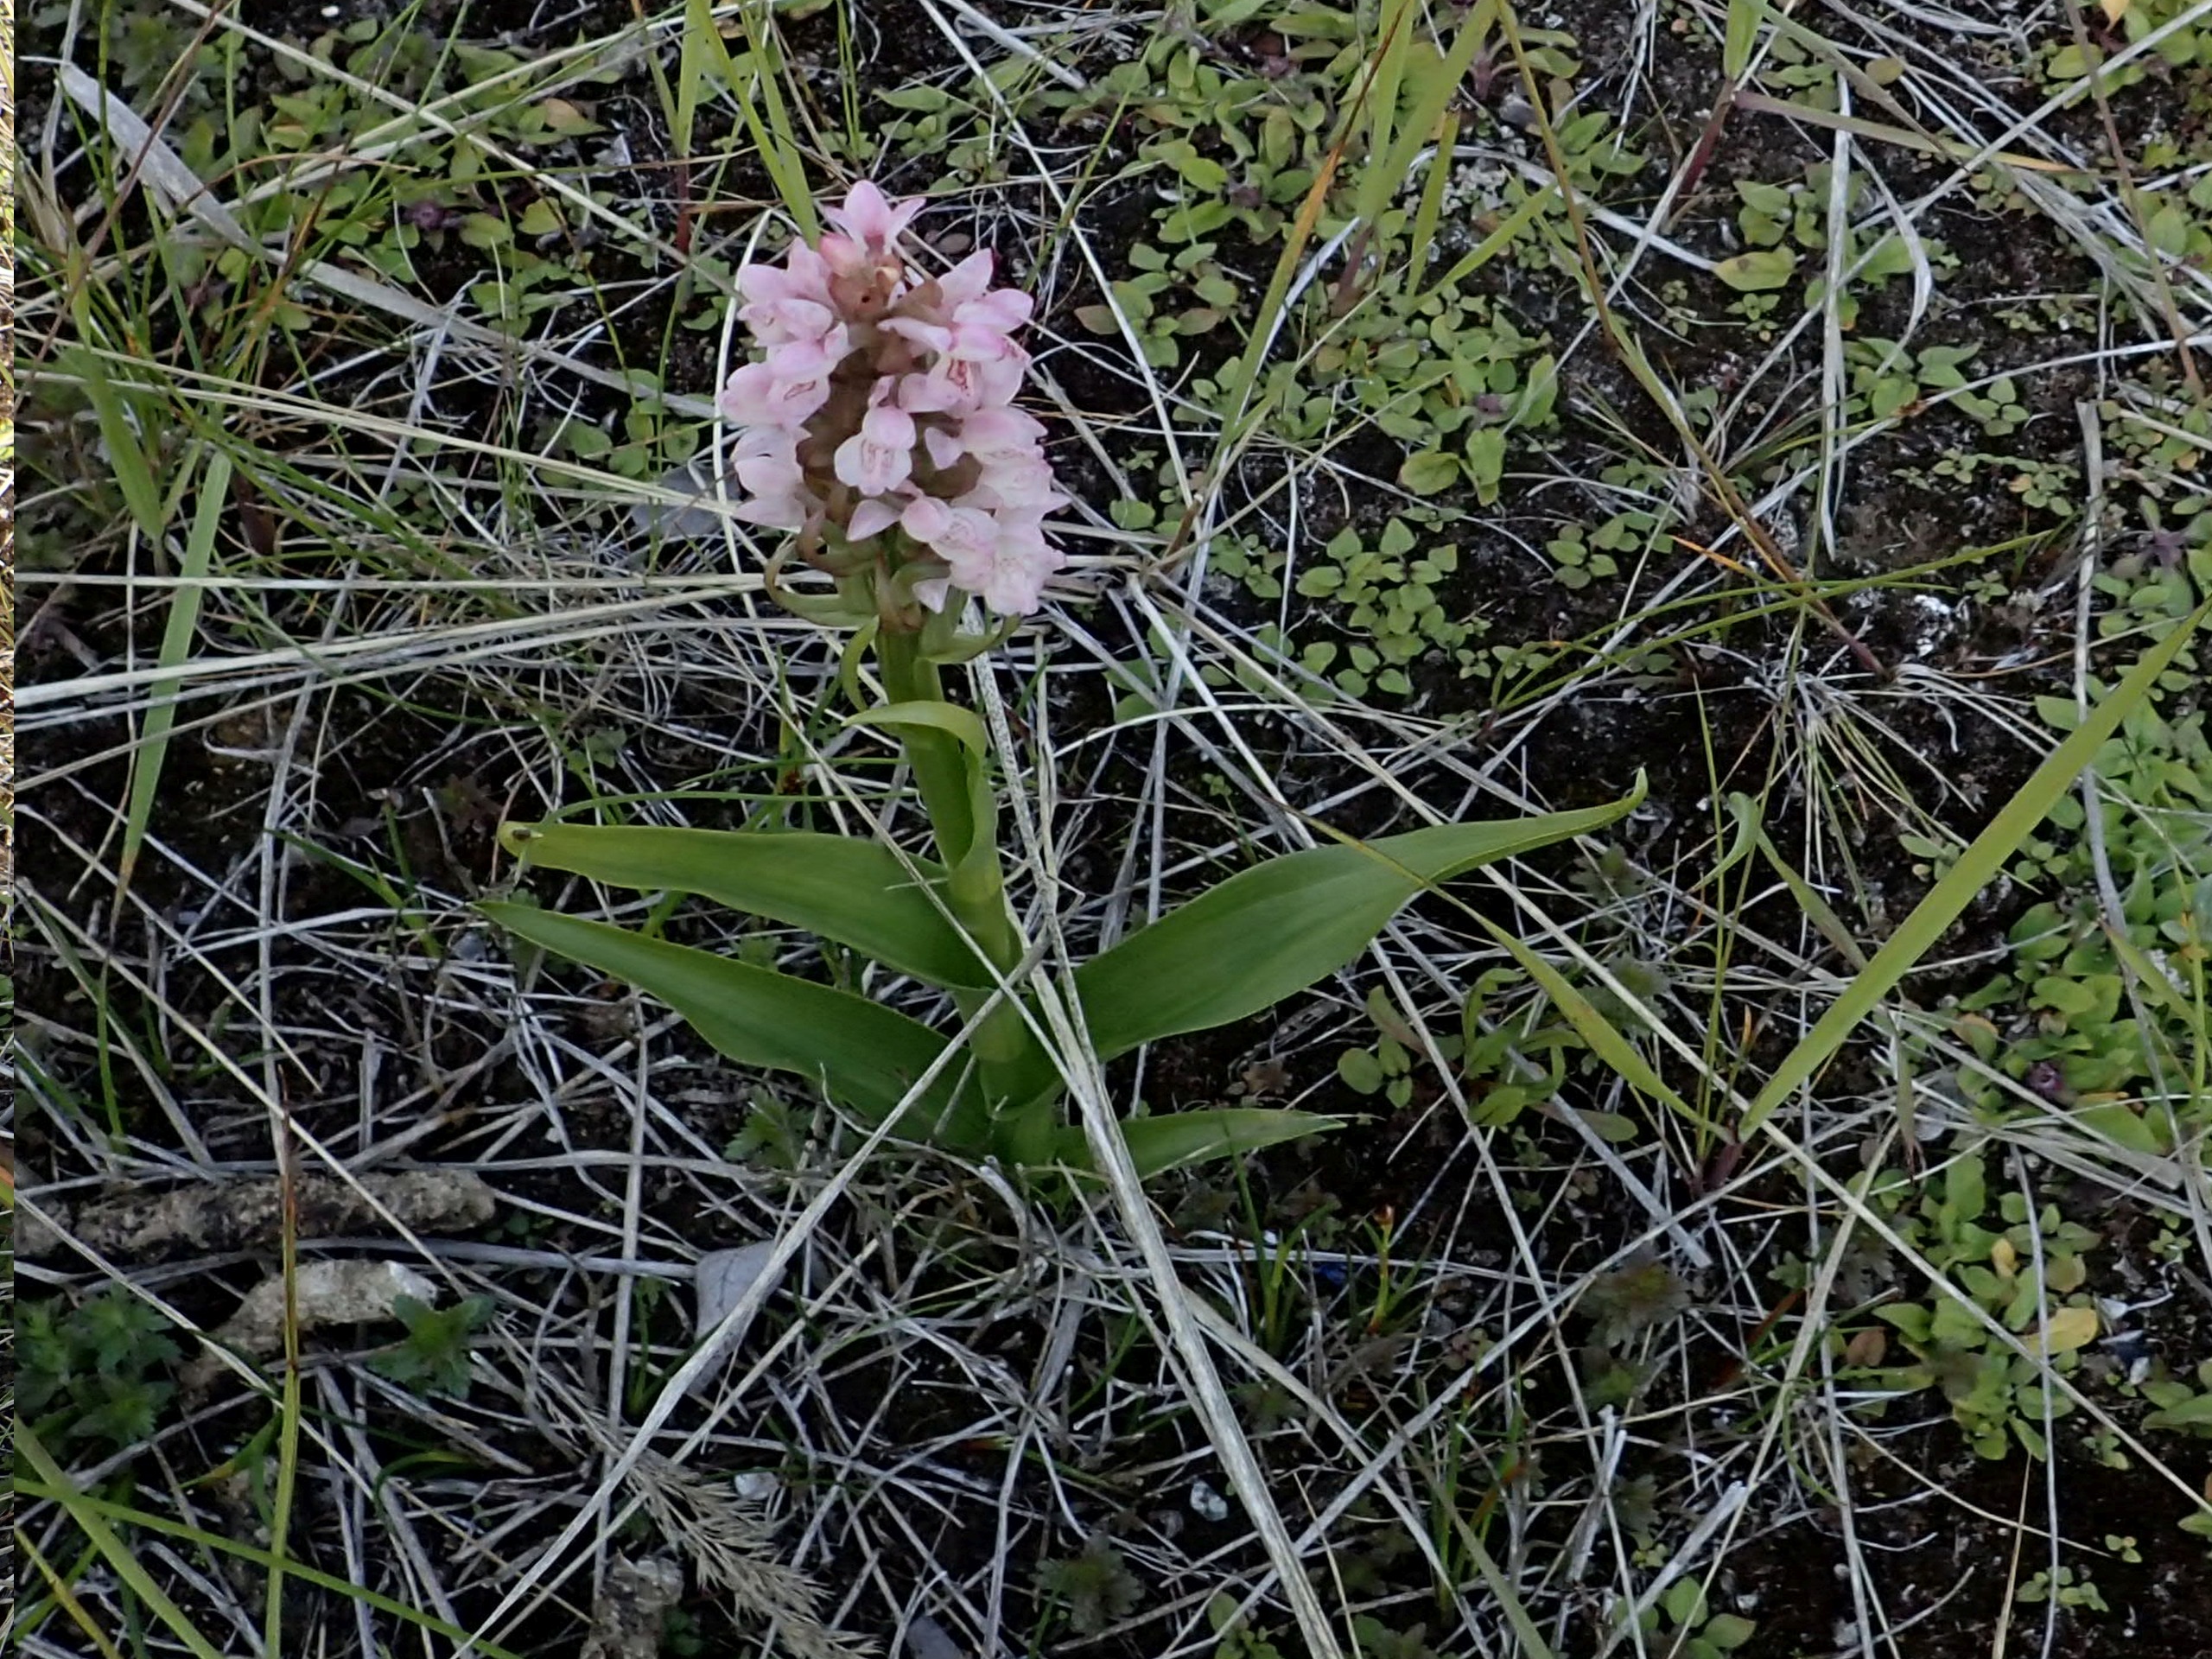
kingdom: Plantae
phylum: Tracheophyta
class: Liliopsida
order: Asparagales
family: Orchidaceae
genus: Dactylorhiza
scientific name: Dactylorhiza incarnata
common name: Kødfarvet gøgeurt
